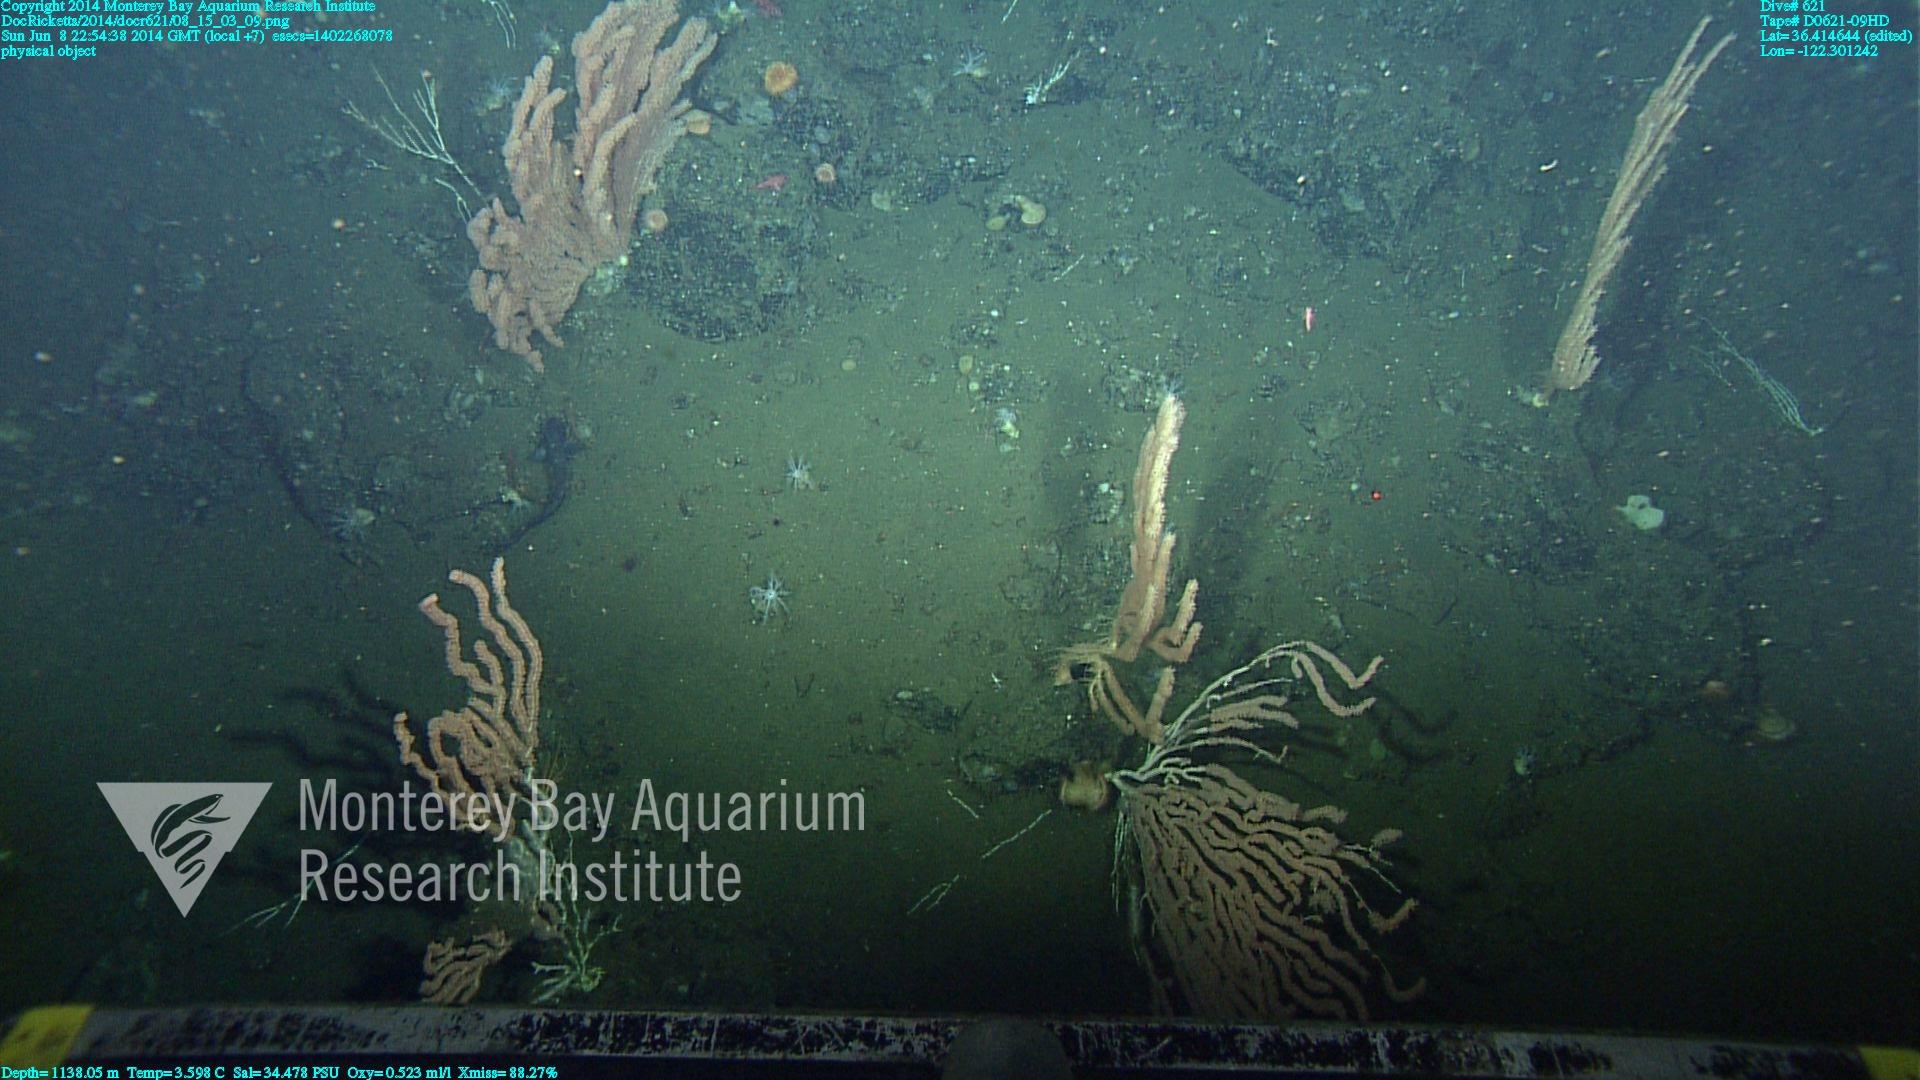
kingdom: Animalia
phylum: Cnidaria
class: Anthozoa
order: Scleralcyonacea
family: Keratoisididae
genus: Keratoisis
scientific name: Keratoisis
